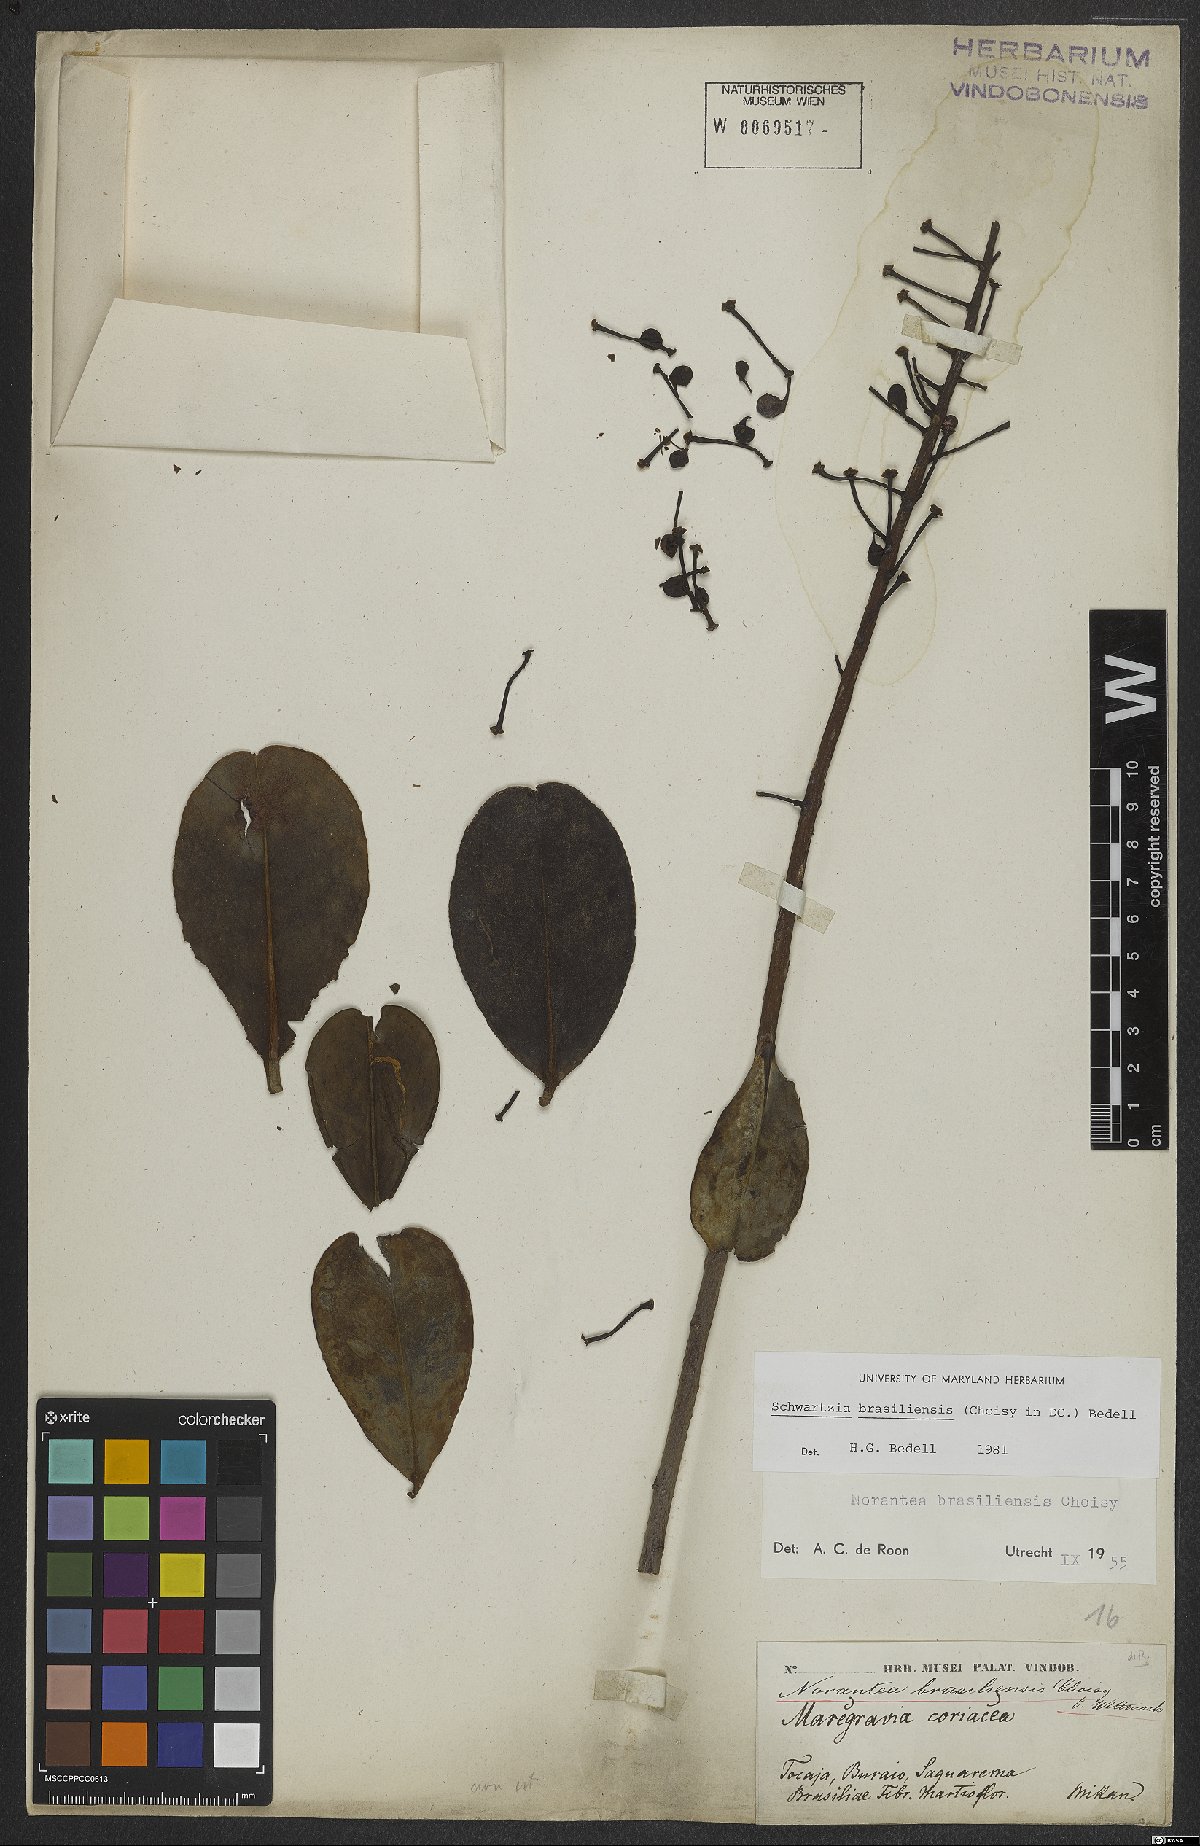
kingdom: Plantae
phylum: Tracheophyta
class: Magnoliopsida
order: Ericales
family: Marcgraviaceae
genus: Schwartzia
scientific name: Schwartzia brasiliensis
